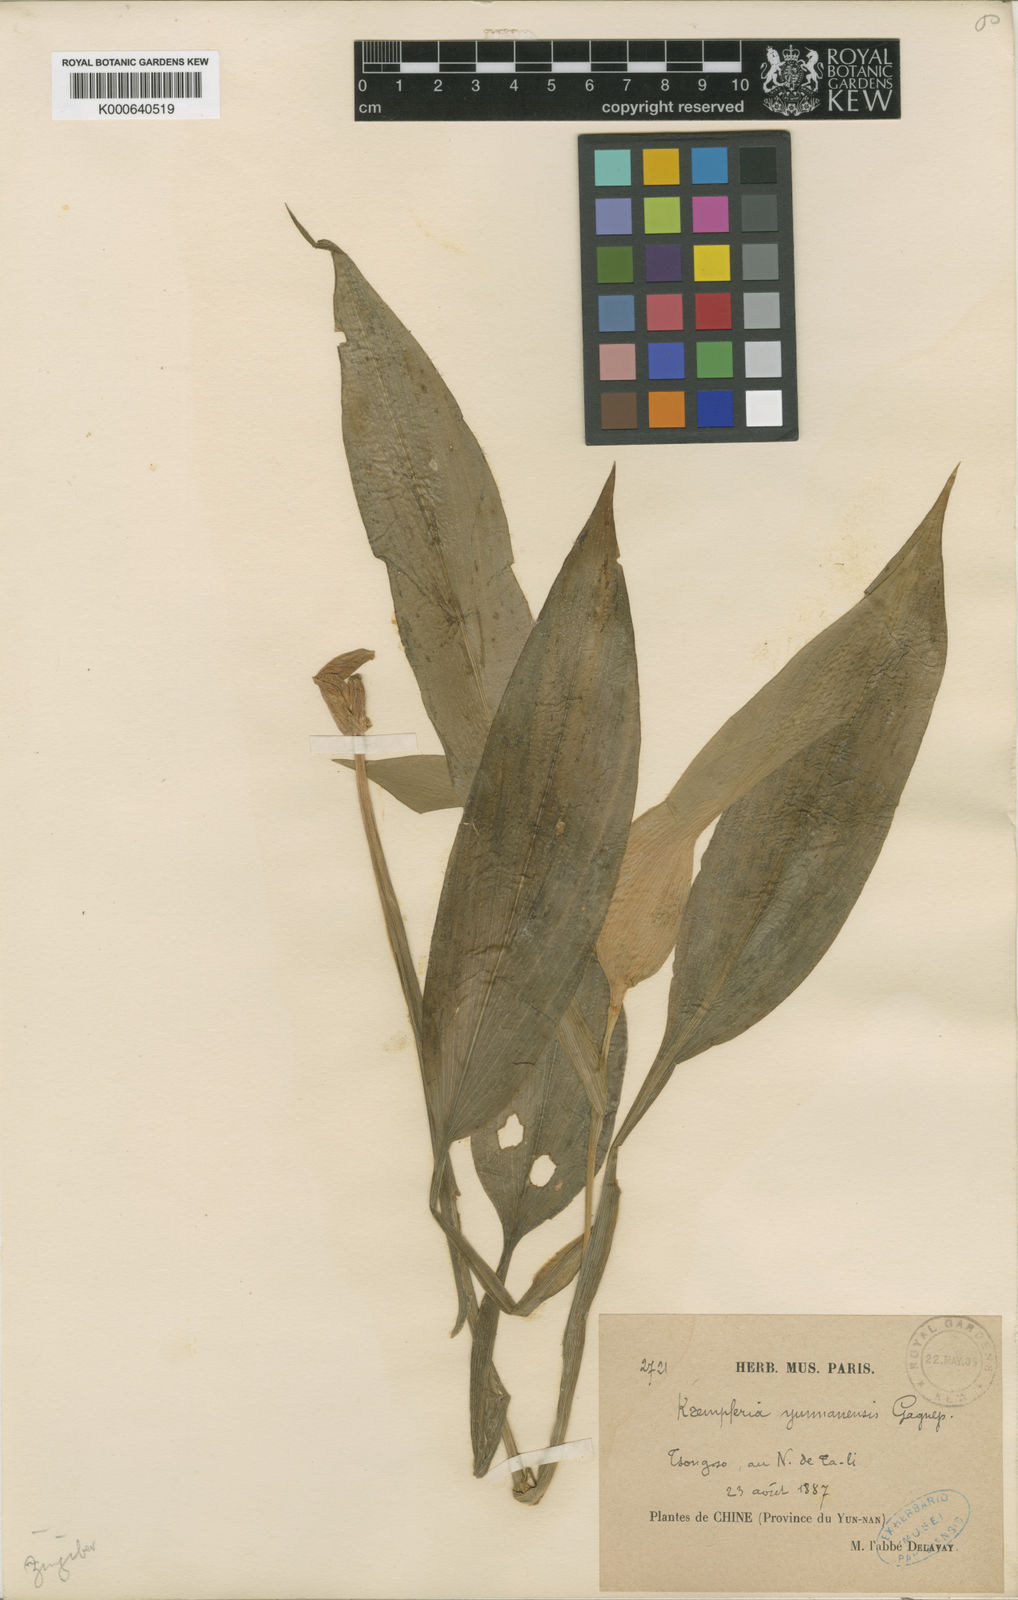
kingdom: Plantae
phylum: Tracheophyta
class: Liliopsida
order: Zingiberales
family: Zingiberaceae
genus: Pyrgophyllum
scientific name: Pyrgophyllum
